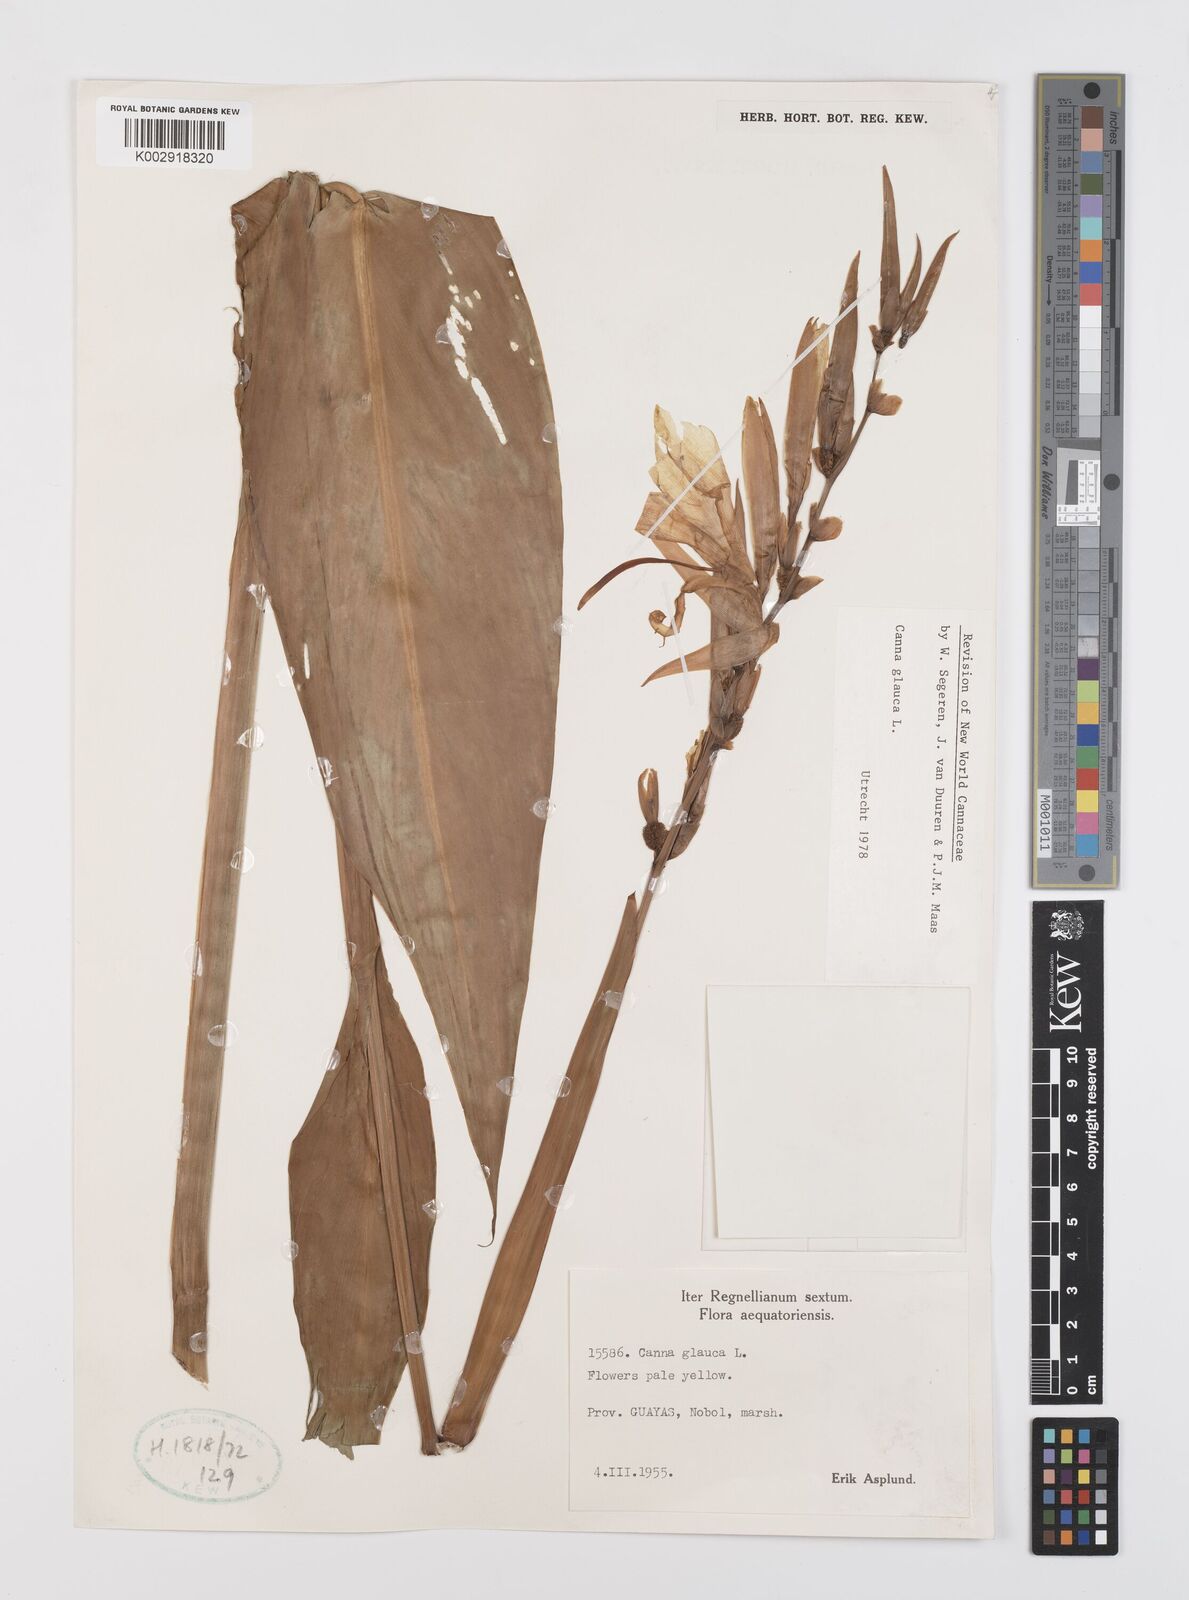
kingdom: Plantae
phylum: Tracheophyta
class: Liliopsida
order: Zingiberales
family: Cannaceae
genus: Canna
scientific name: Canna glauca
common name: Louisiana canna
